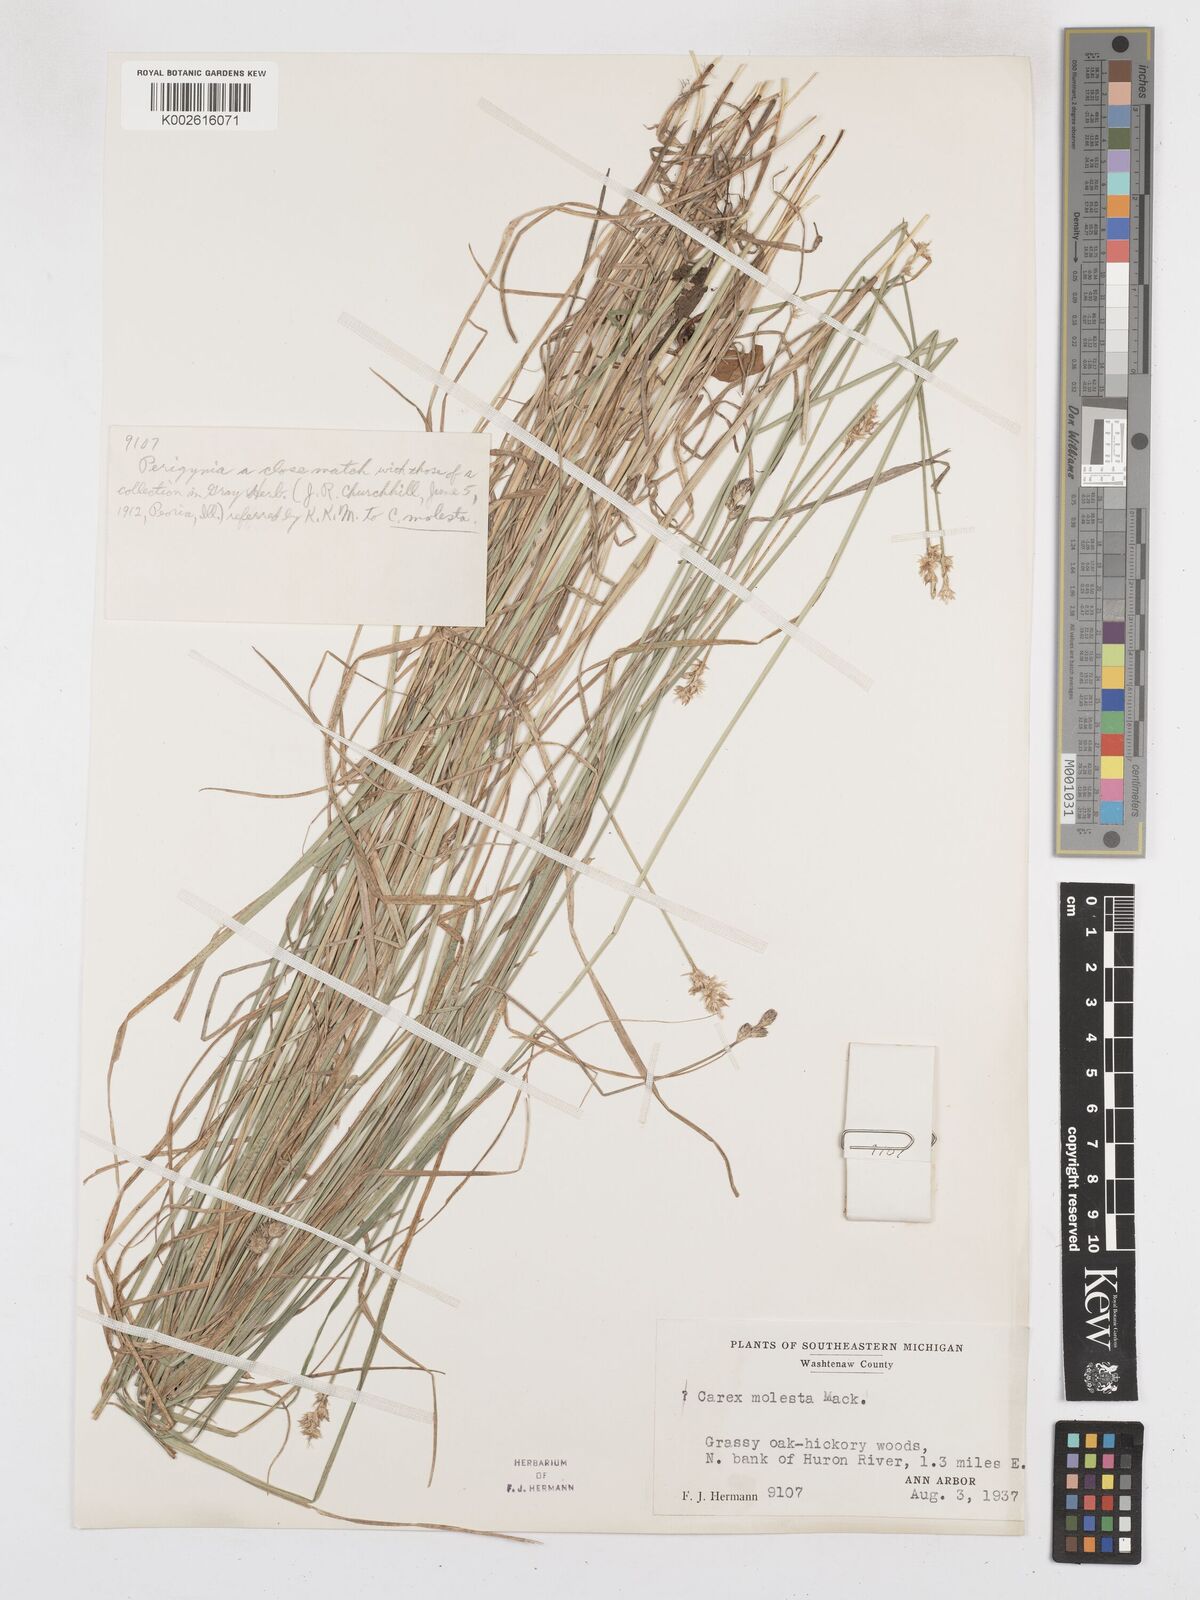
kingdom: Plantae
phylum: Tracheophyta
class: Liliopsida
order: Poales
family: Cyperaceae
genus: Carex
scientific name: Carex molesta
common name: Troublesome sedge
